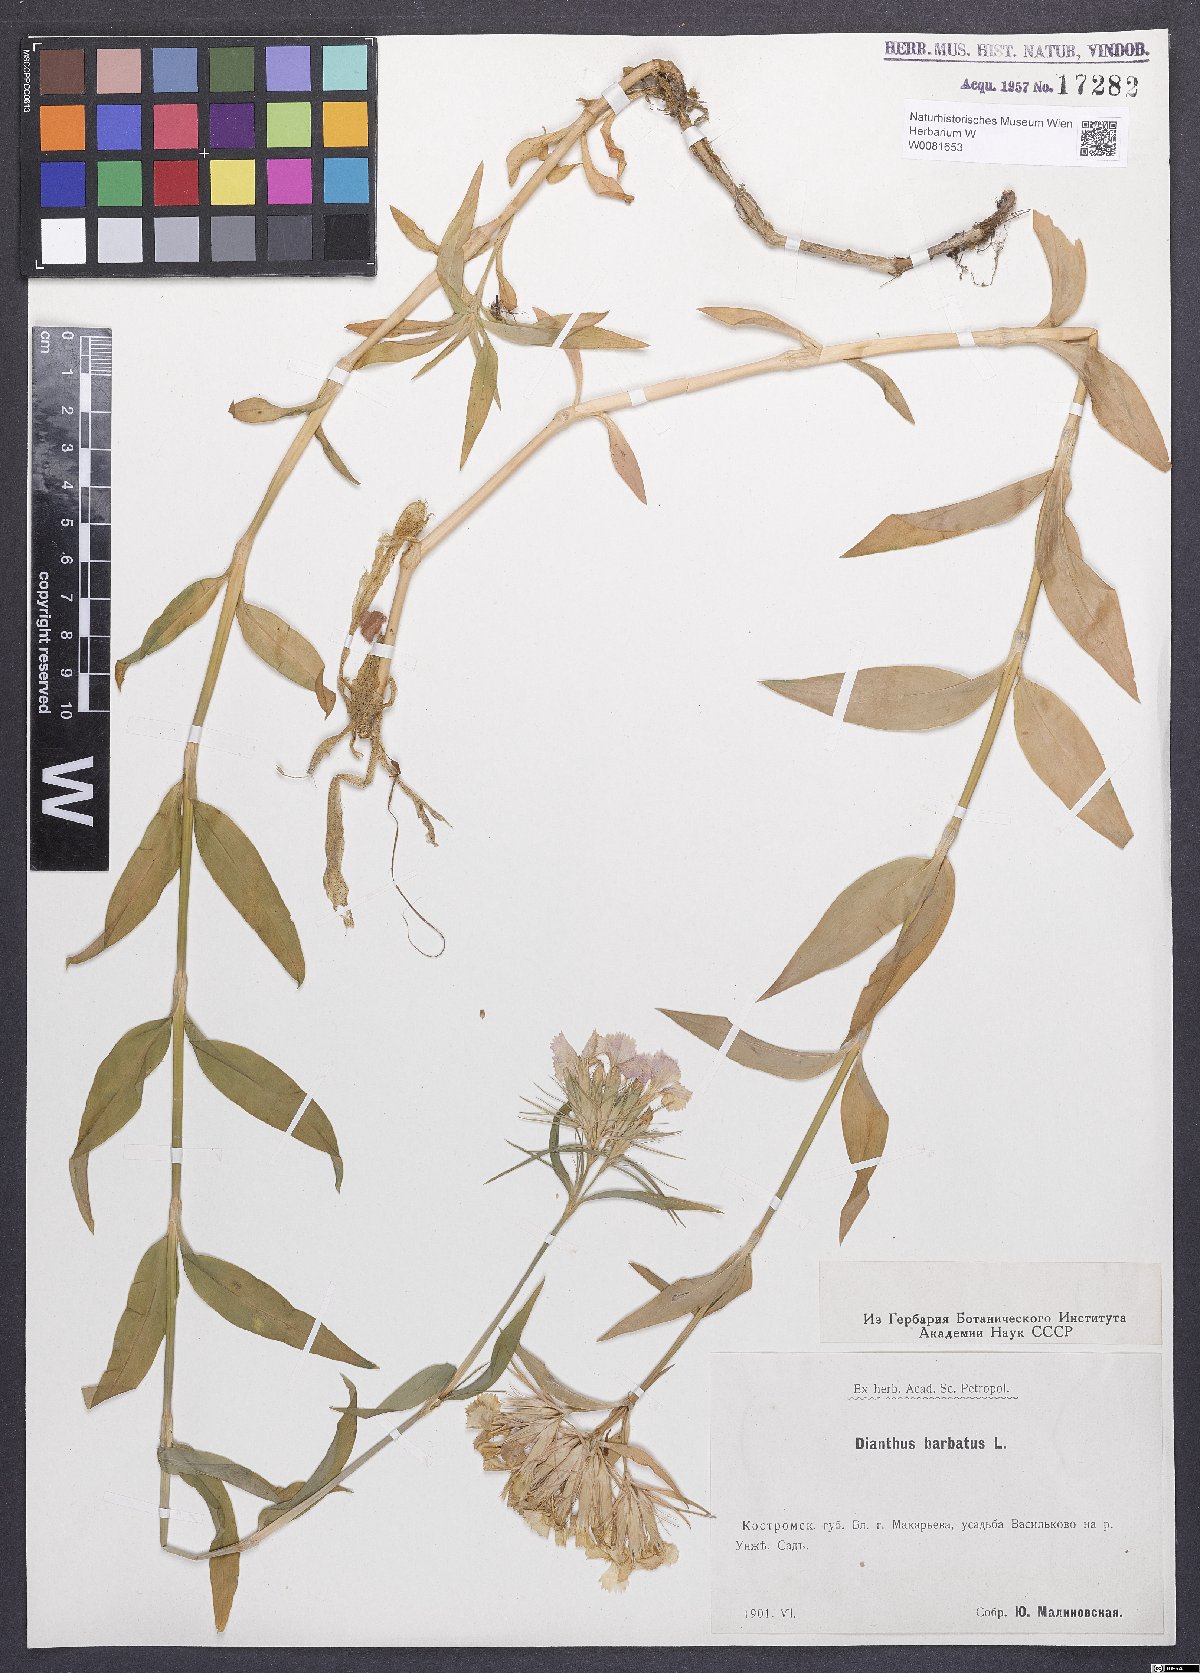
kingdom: Plantae
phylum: Tracheophyta
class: Magnoliopsida
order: Caryophyllales
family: Caryophyllaceae
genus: Dianthus
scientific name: Dianthus barbatus
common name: Sweet-william
